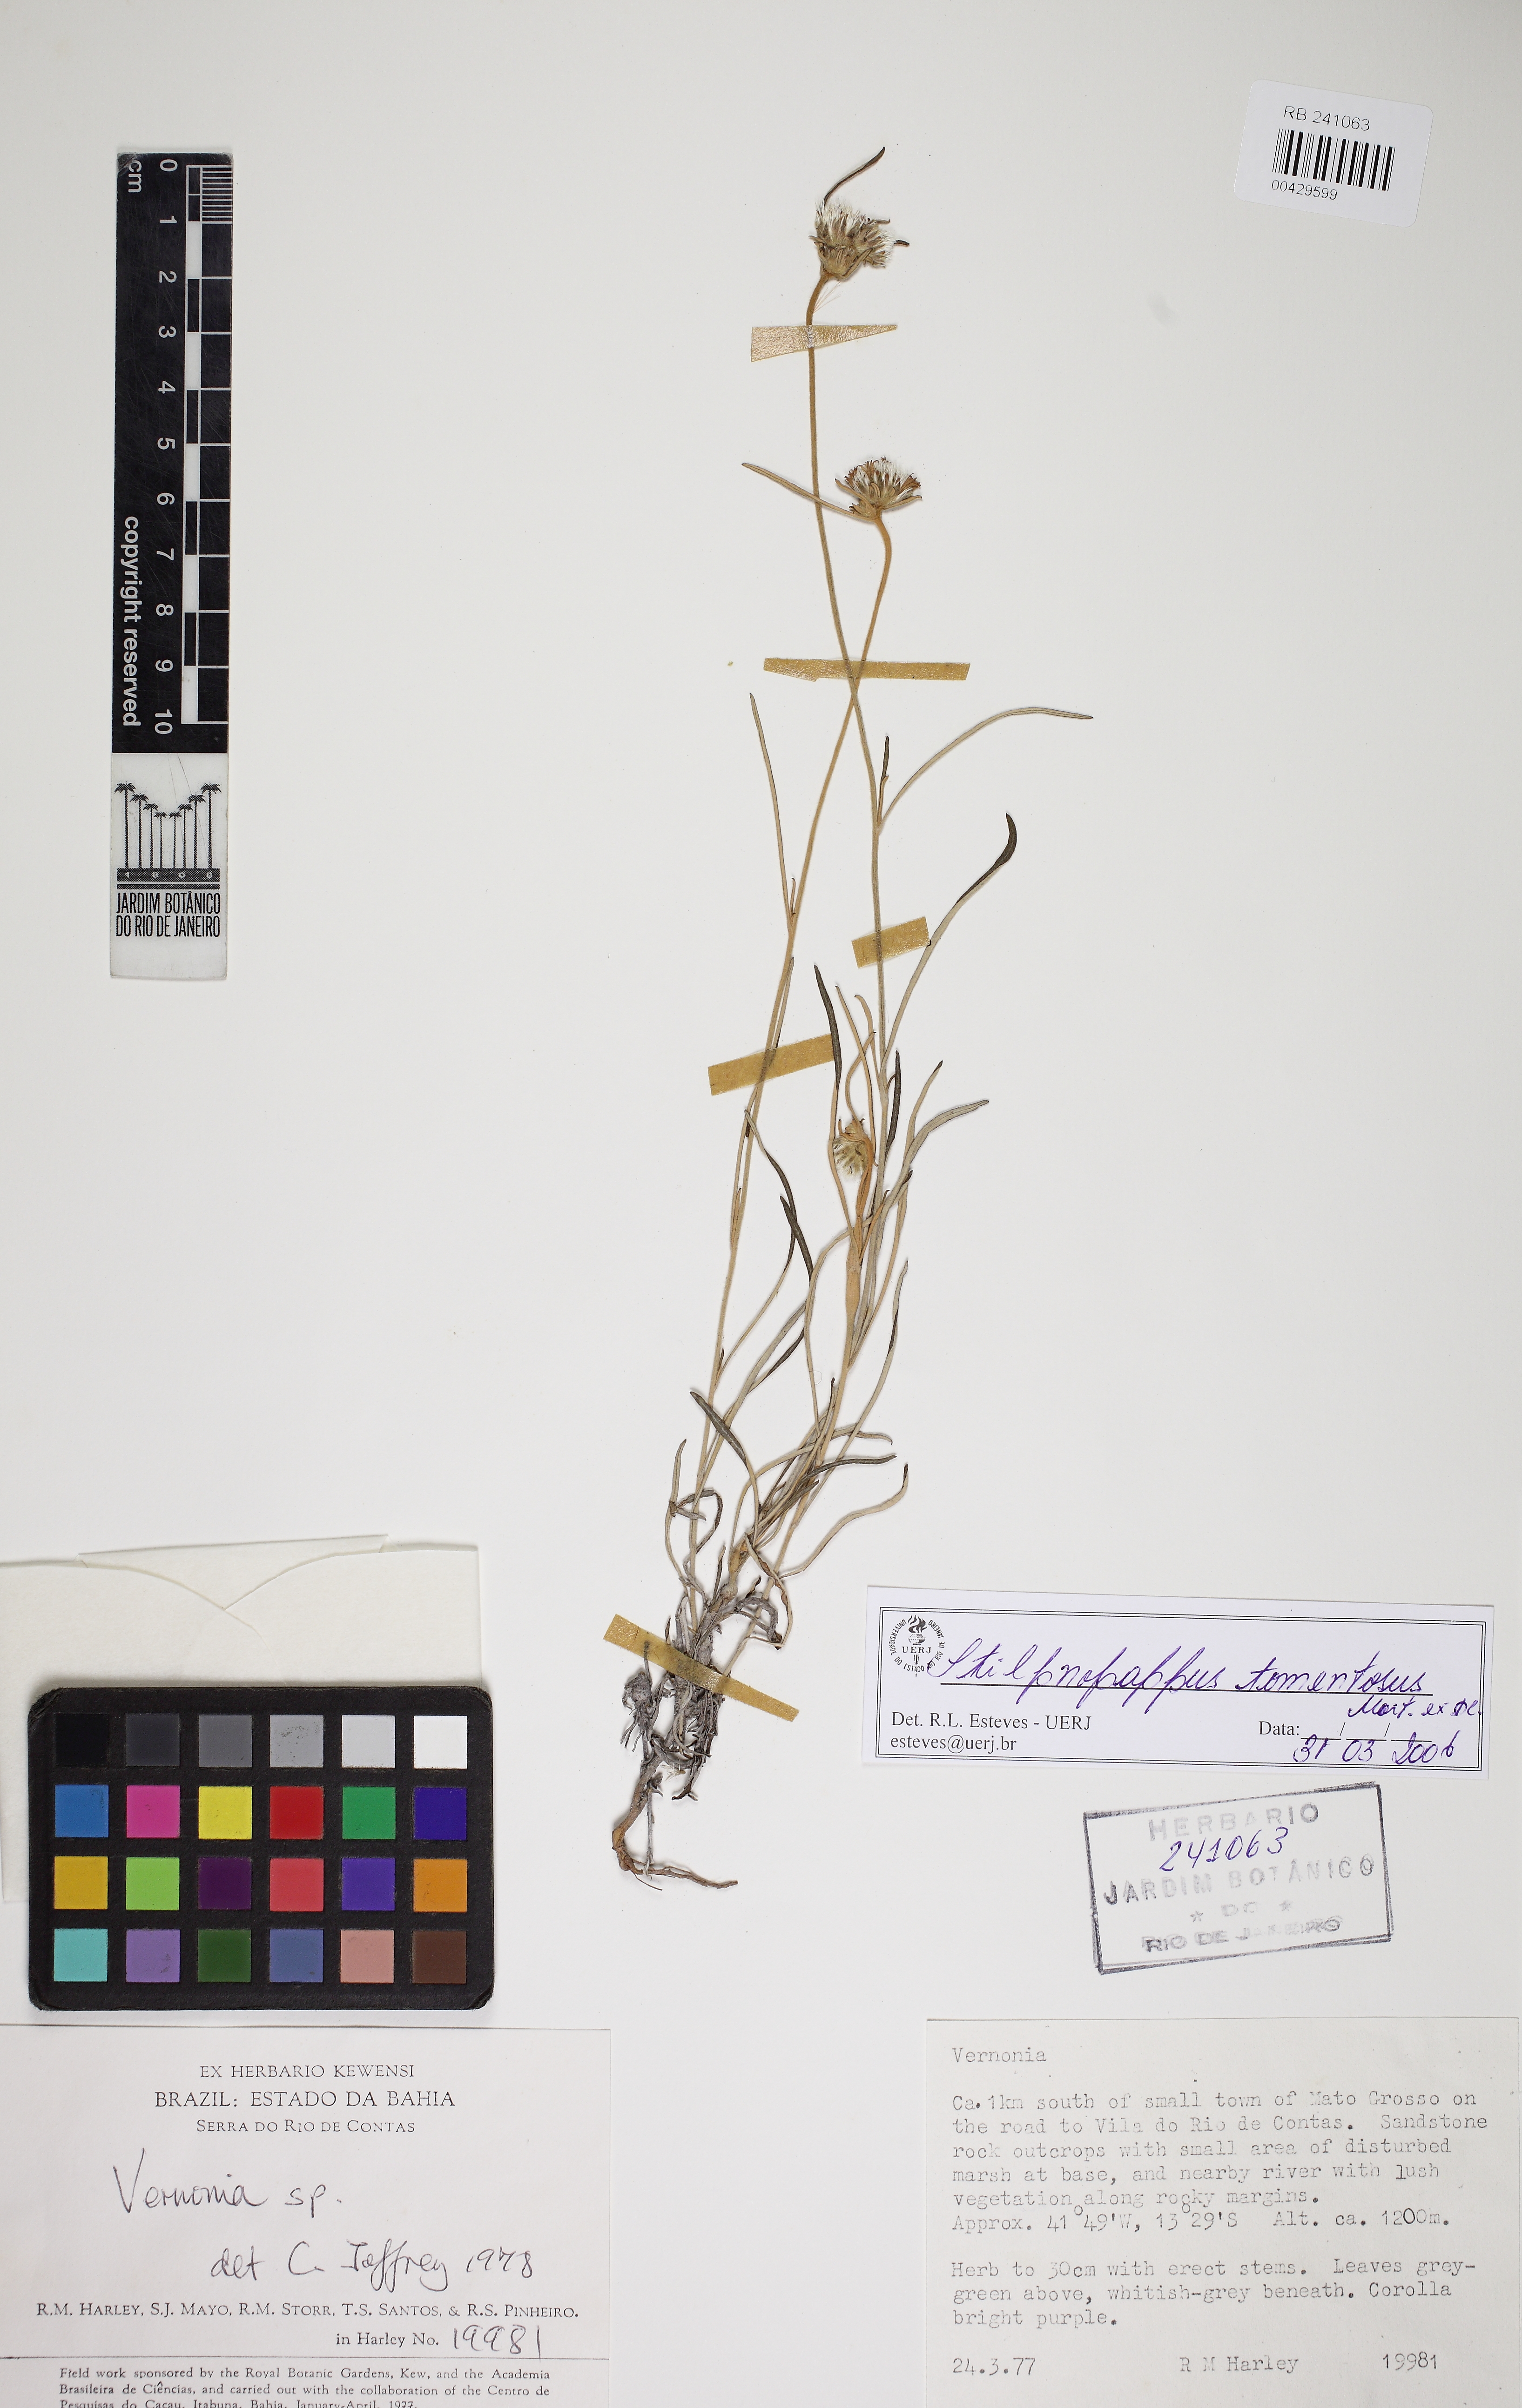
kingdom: Plantae
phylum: Tracheophyta
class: Magnoliopsida
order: Asterales
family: Asteraceae
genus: Stilpnopappus
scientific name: Stilpnopappus tomentosus
